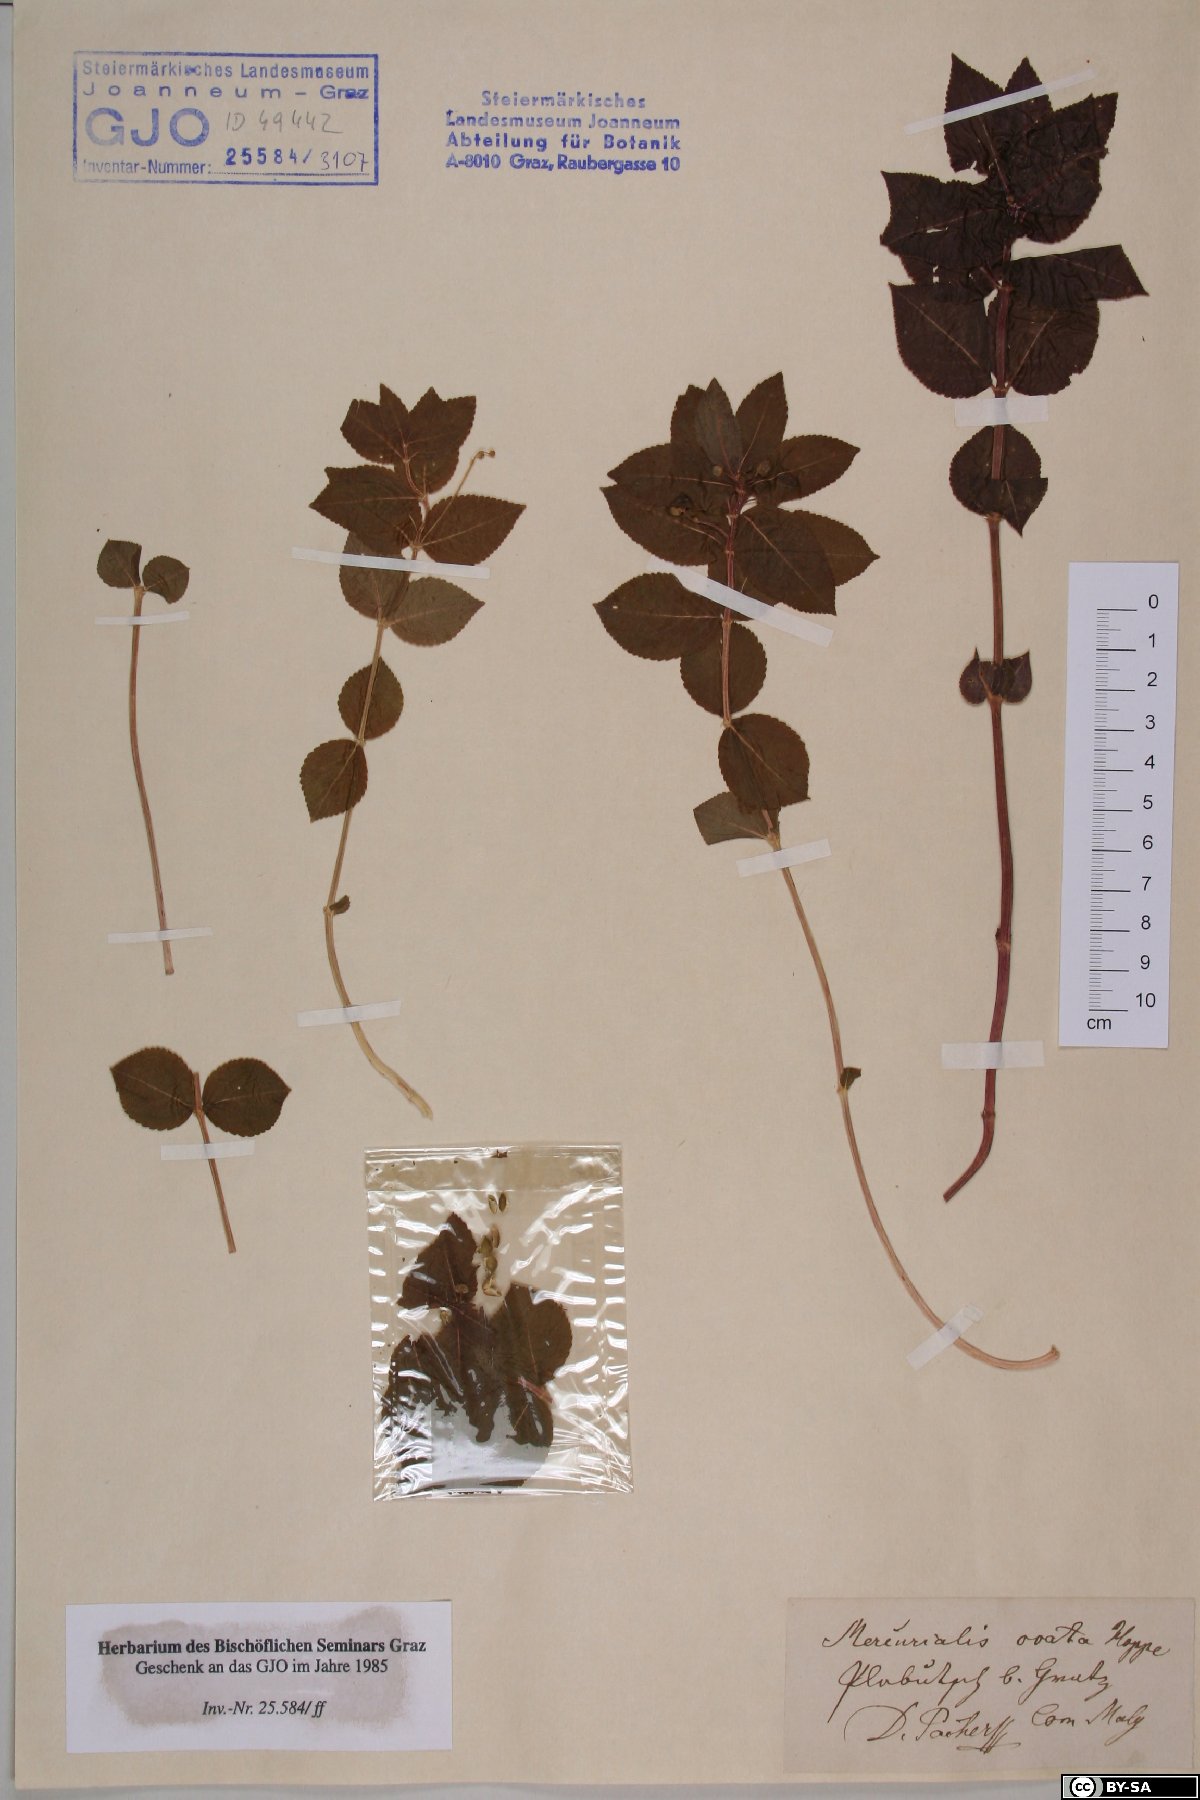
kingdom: Plantae
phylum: Tracheophyta
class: Magnoliopsida
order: Malpighiales
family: Euphorbiaceae
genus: Mercurialis
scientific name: Mercurialis ovata
